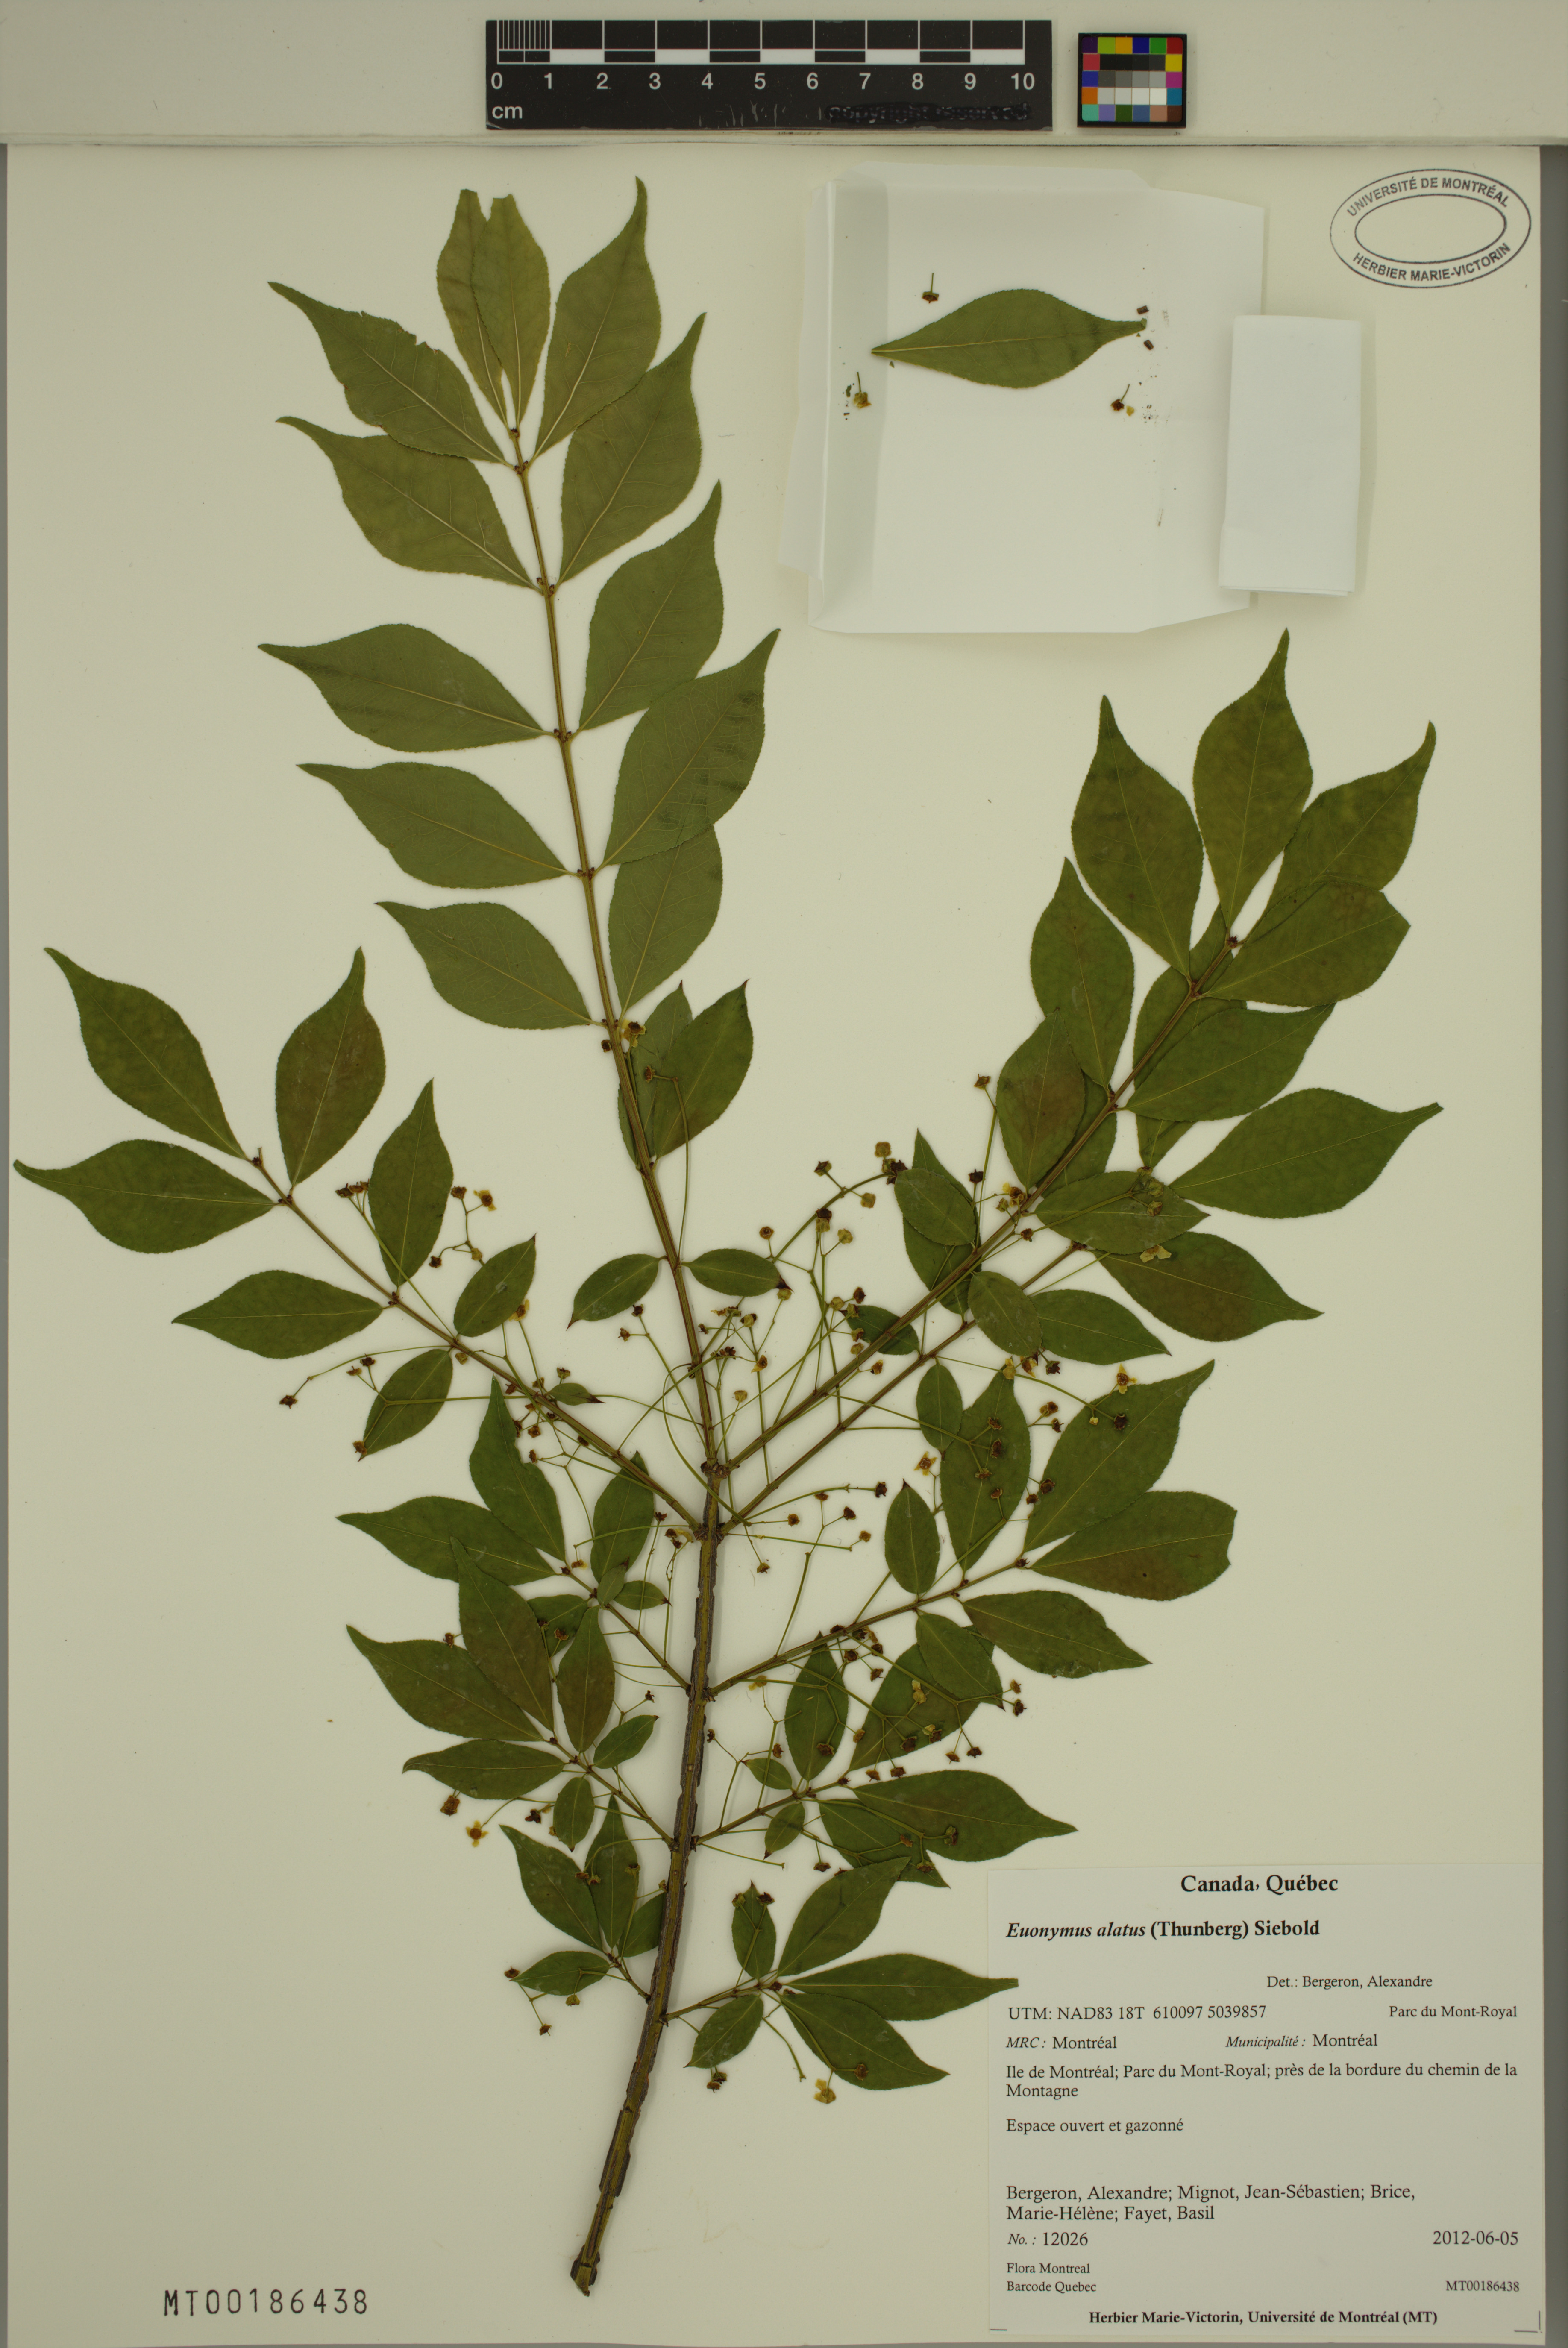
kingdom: Plantae
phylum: Tracheophyta
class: Magnoliopsida
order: Celastrales
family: Celastraceae
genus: Euonymus
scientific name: Euonymus alatus
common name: Winged euonymus
